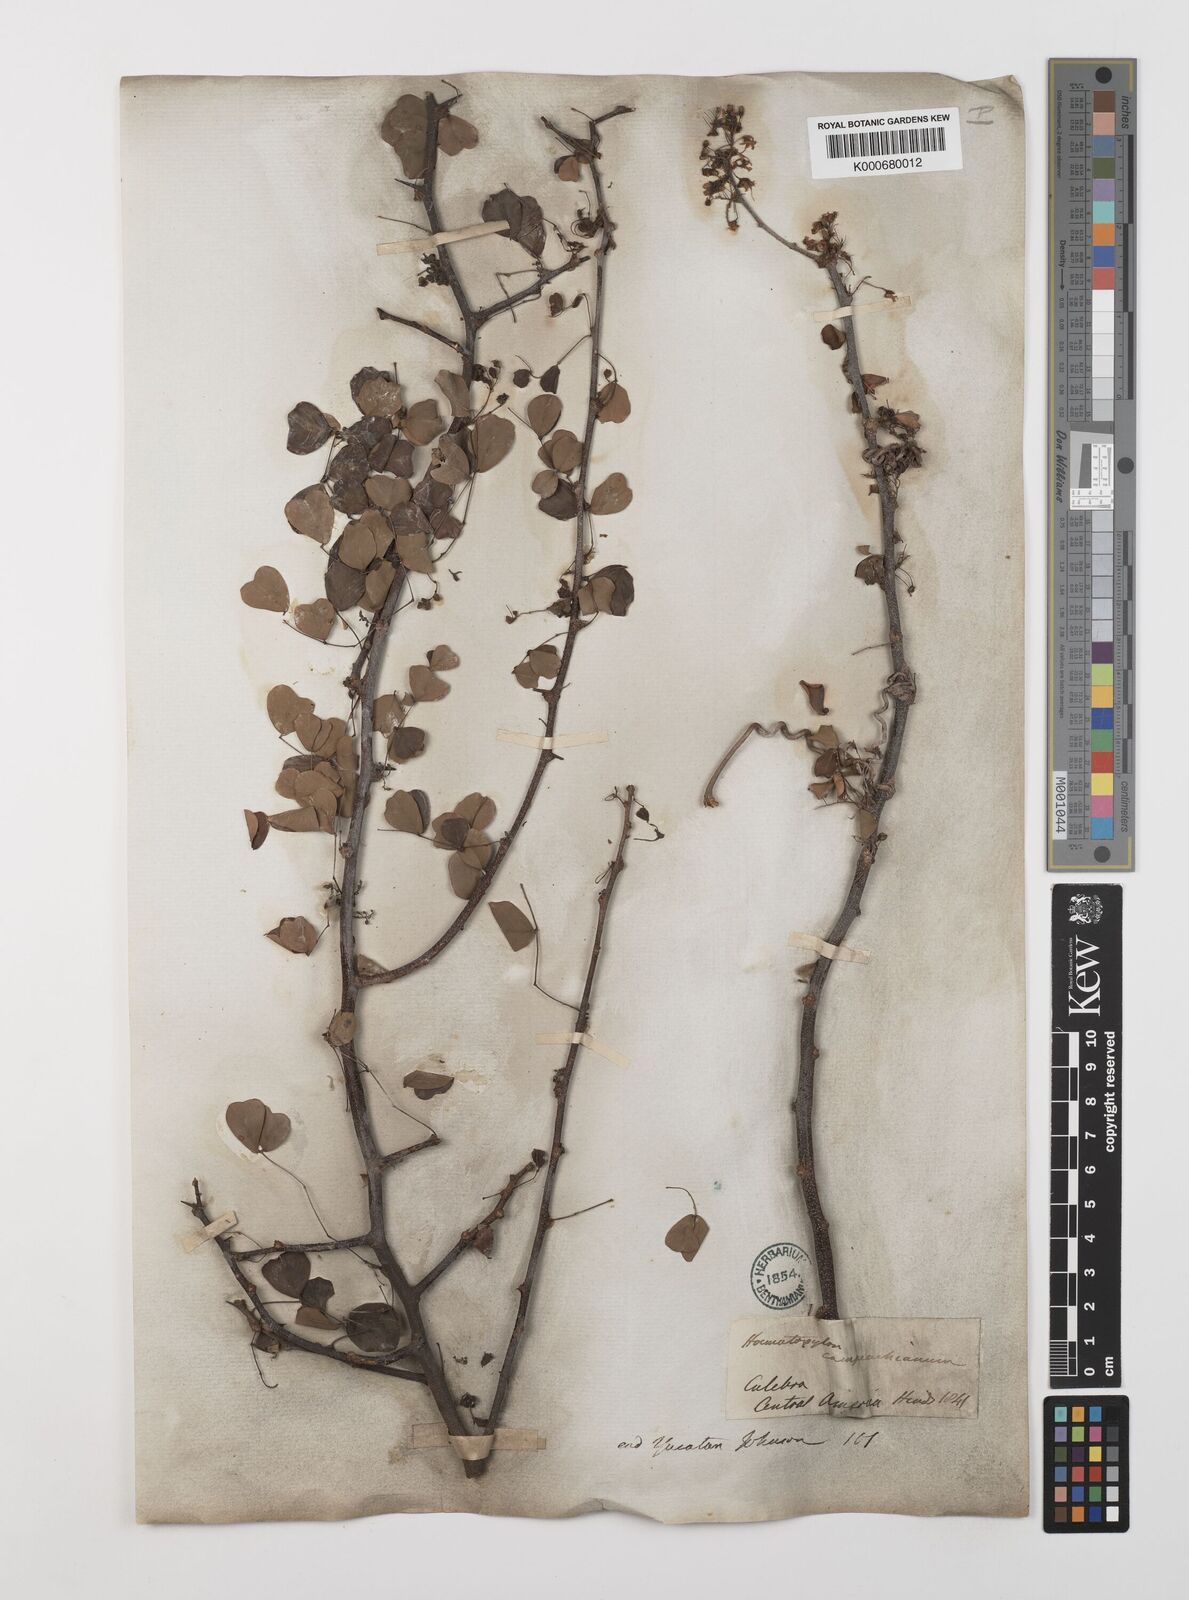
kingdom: Plantae
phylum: Tracheophyta
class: Magnoliopsida
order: Fabales
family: Fabaceae
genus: Haematoxylum
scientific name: Haematoxylum
